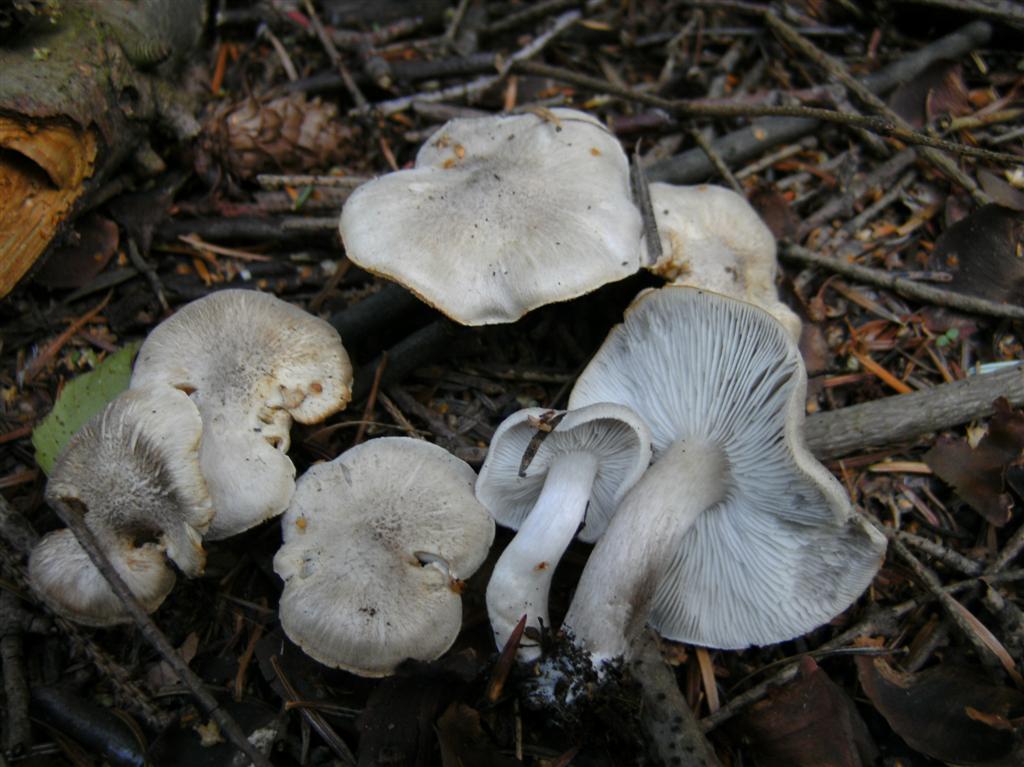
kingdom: Fungi
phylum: Basidiomycota
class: Agaricomycetes
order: Agaricales
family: Tricholomataceae
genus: Tricholoma
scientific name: Tricholoma scalpturatum
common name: gulplettet ridderhat
